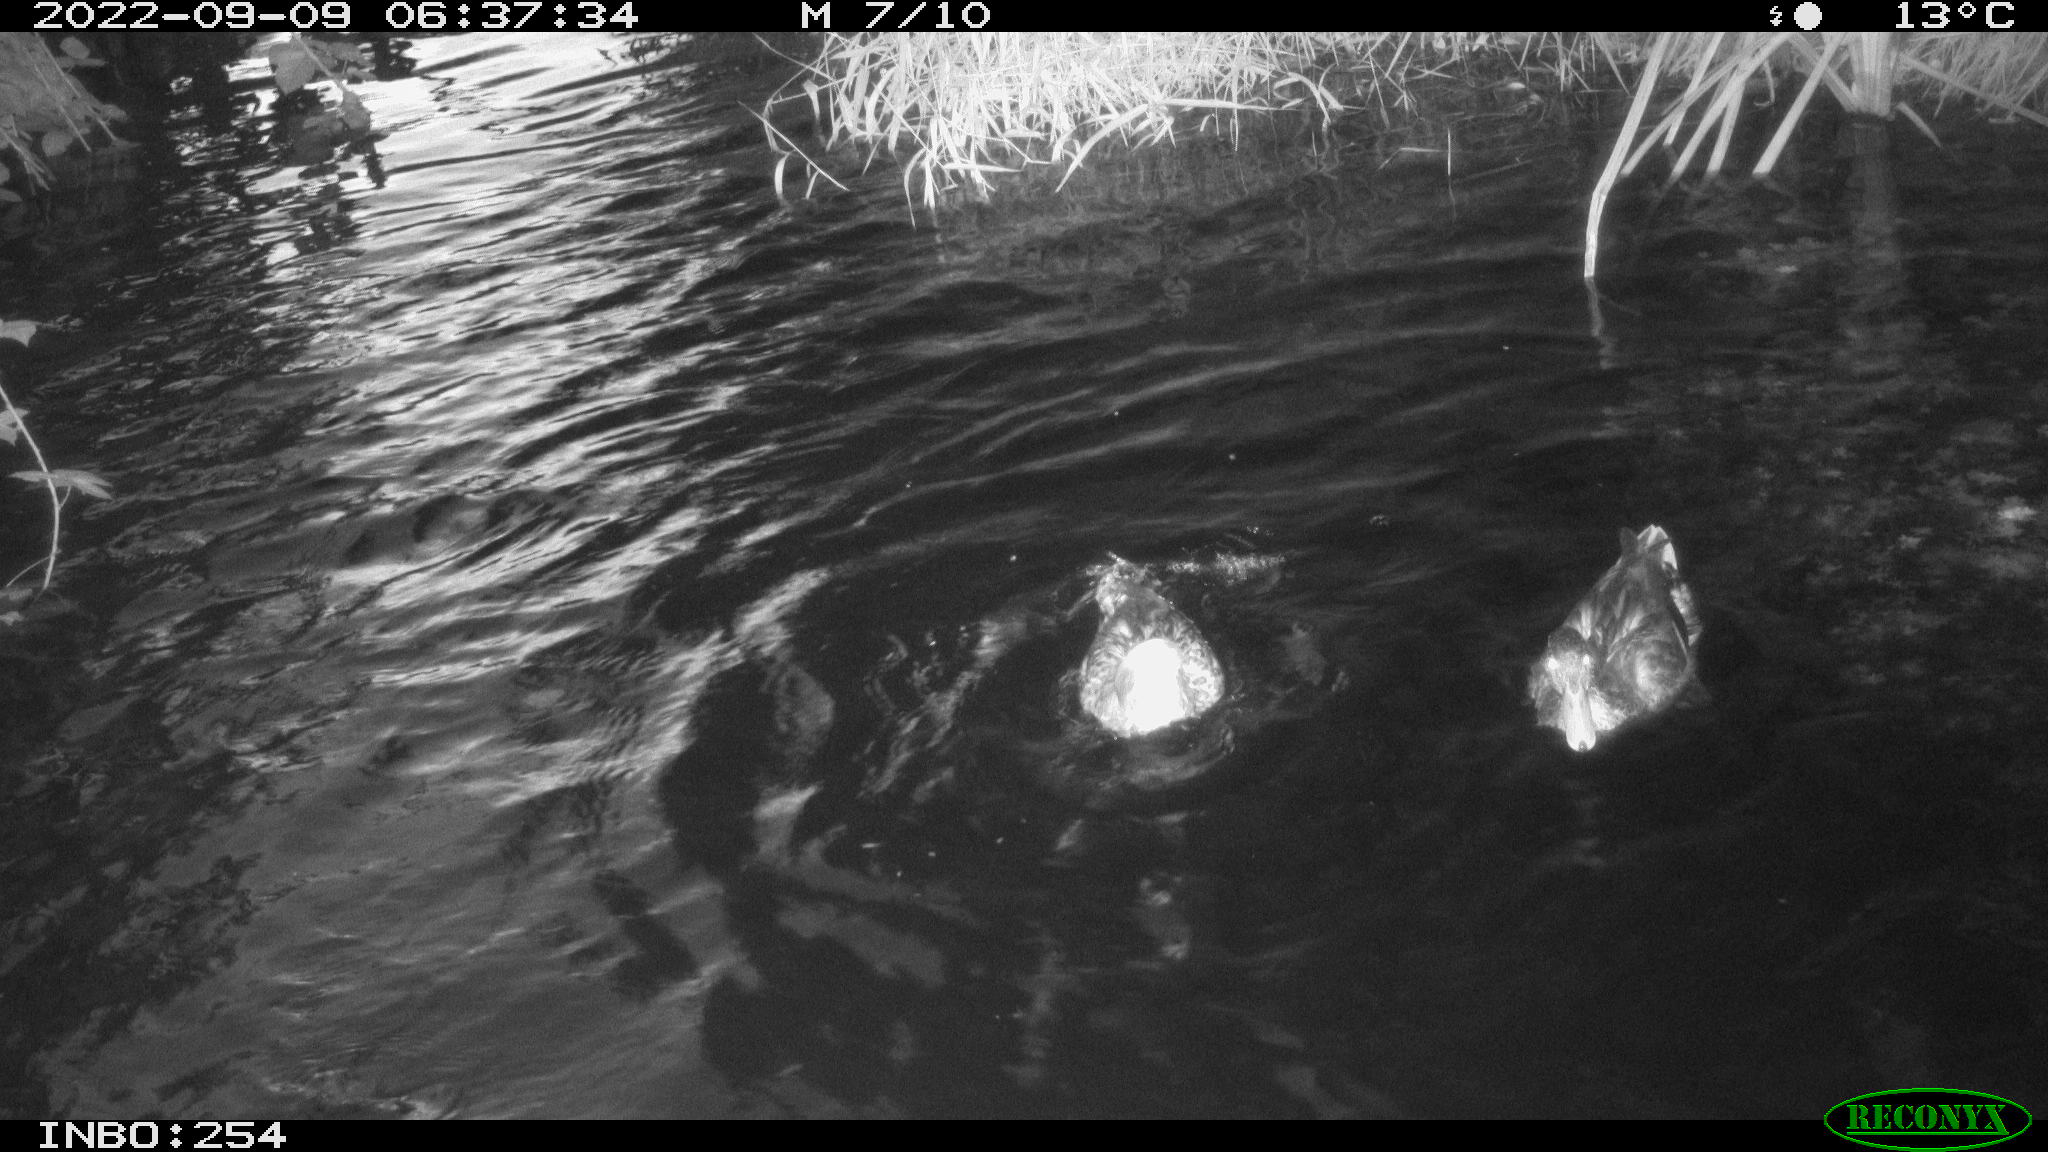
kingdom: Animalia
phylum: Chordata
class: Aves
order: Anseriformes
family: Anatidae
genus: Anas
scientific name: Anas
